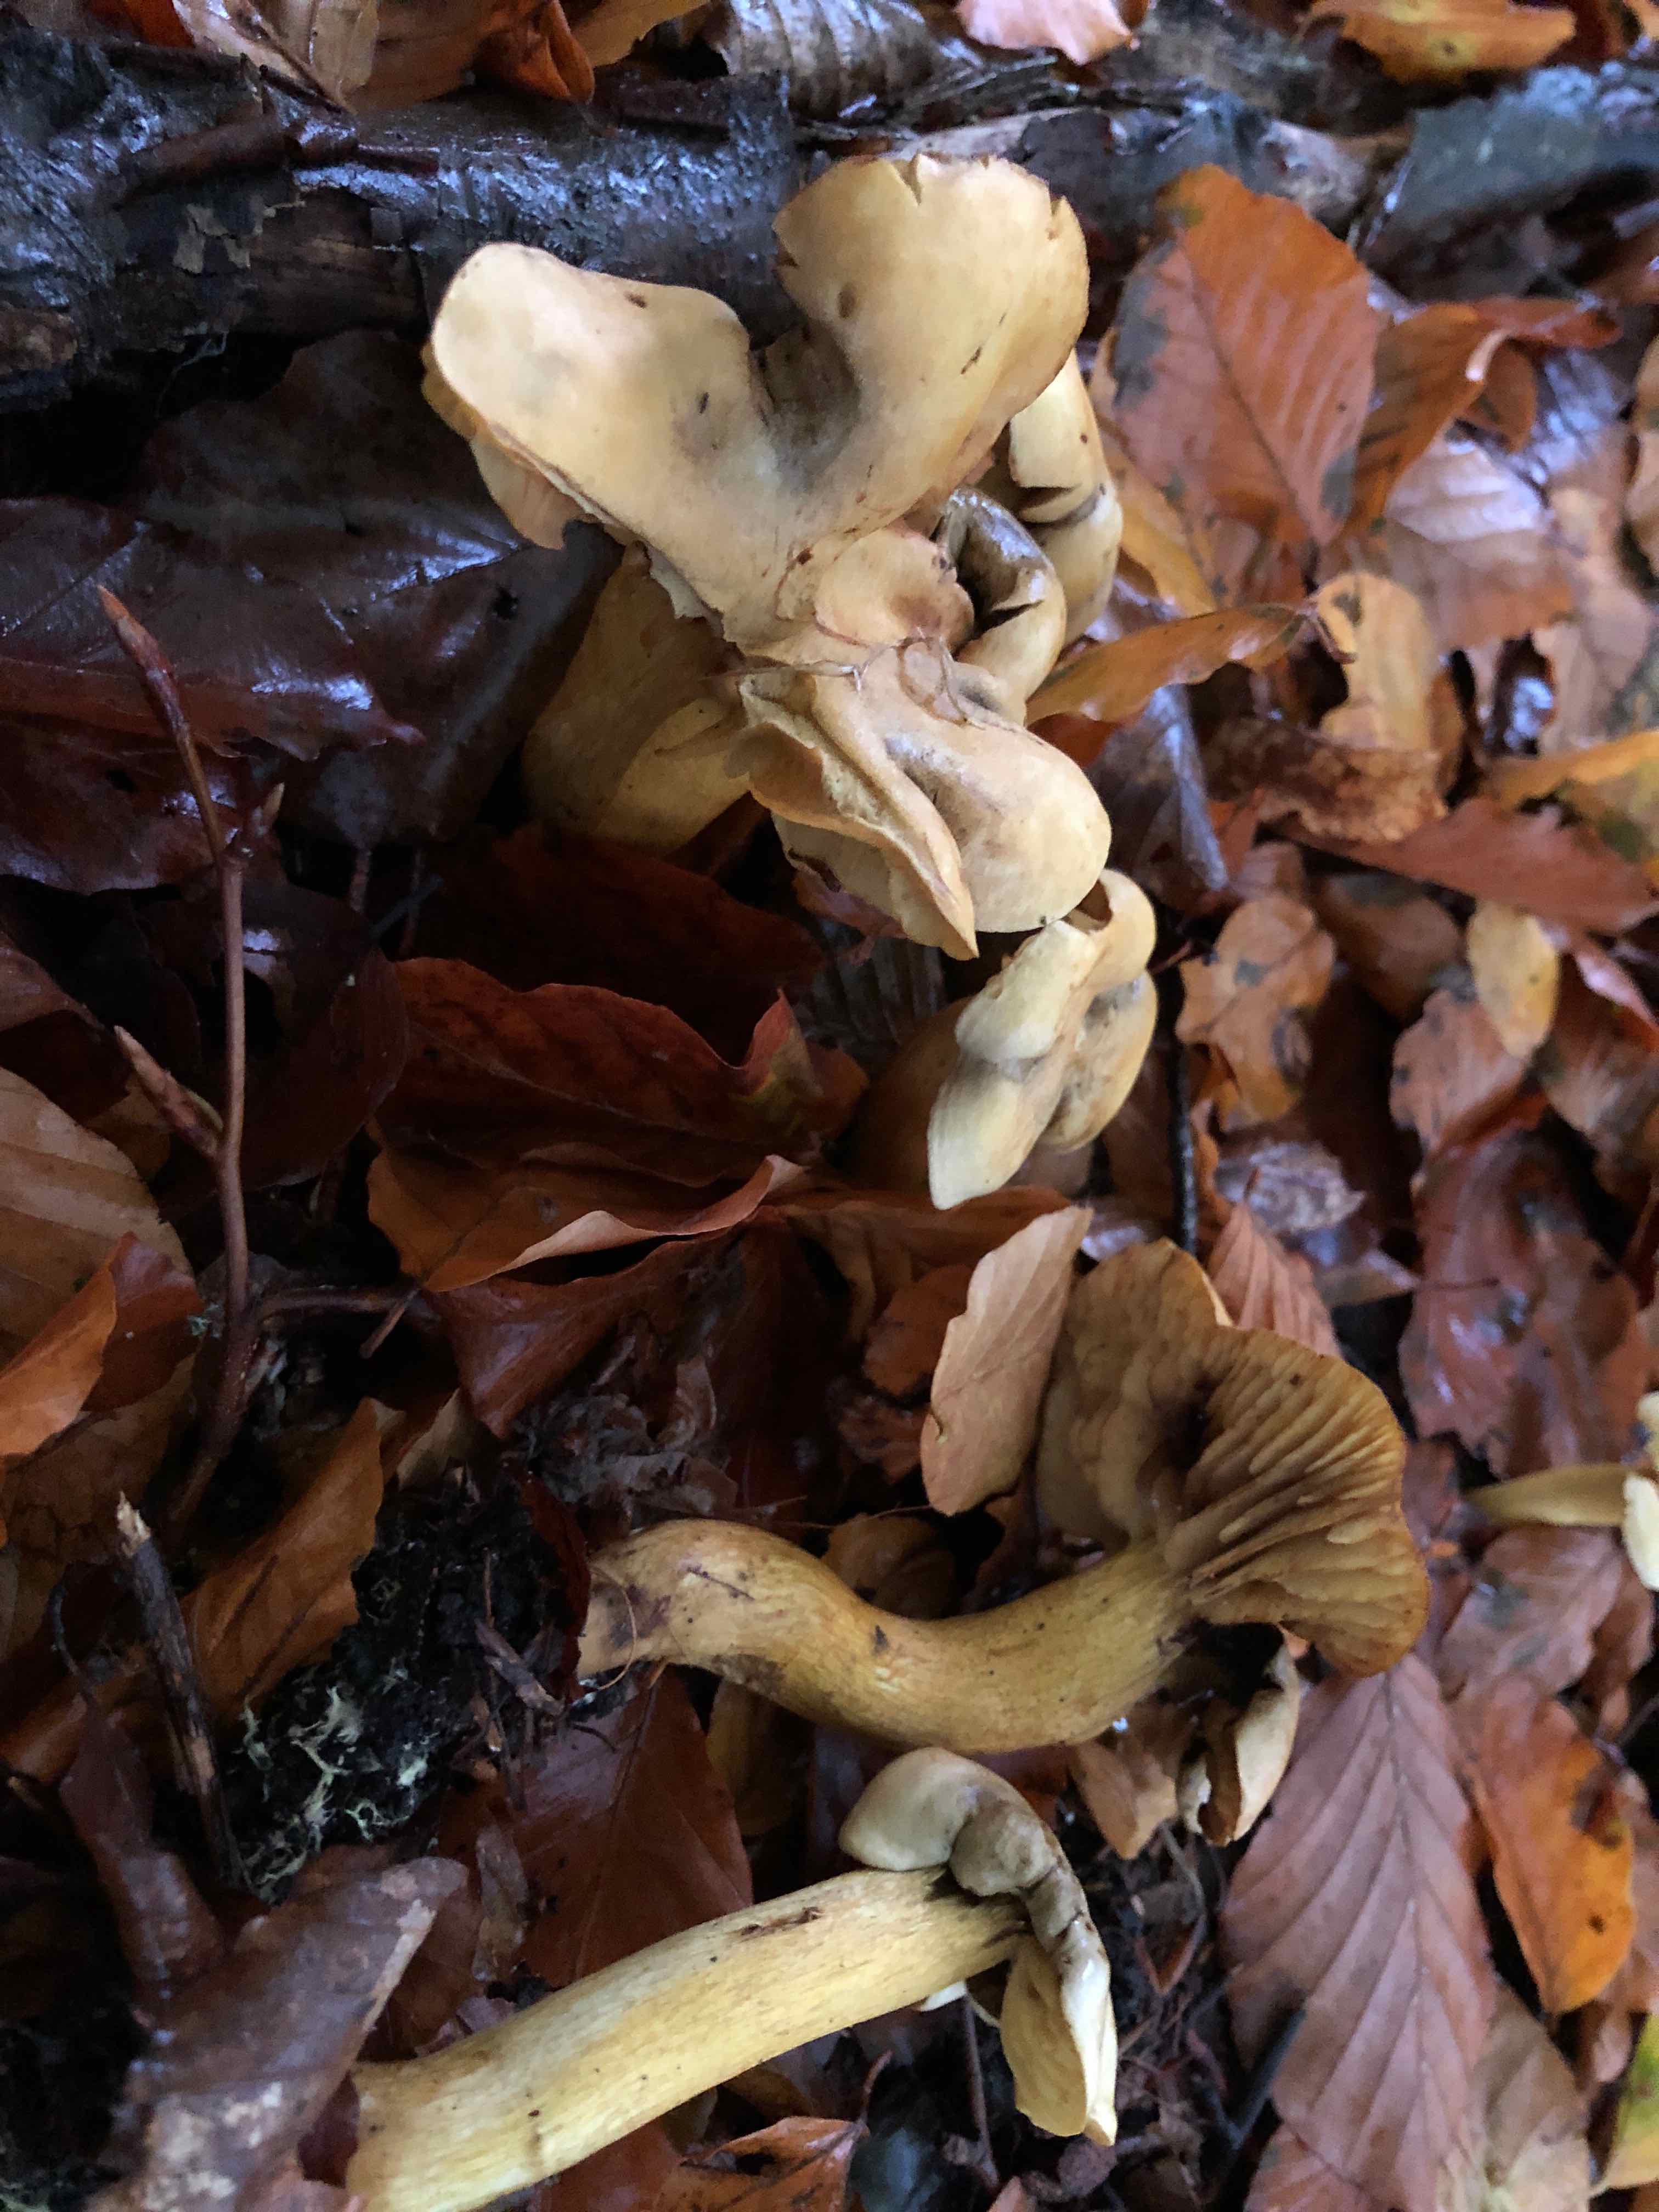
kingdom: Fungi
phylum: Basidiomycota
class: Agaricomycetes
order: Agaricales
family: Tricholomataceae
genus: Tricholoma
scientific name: Tricholoma sulphureum
